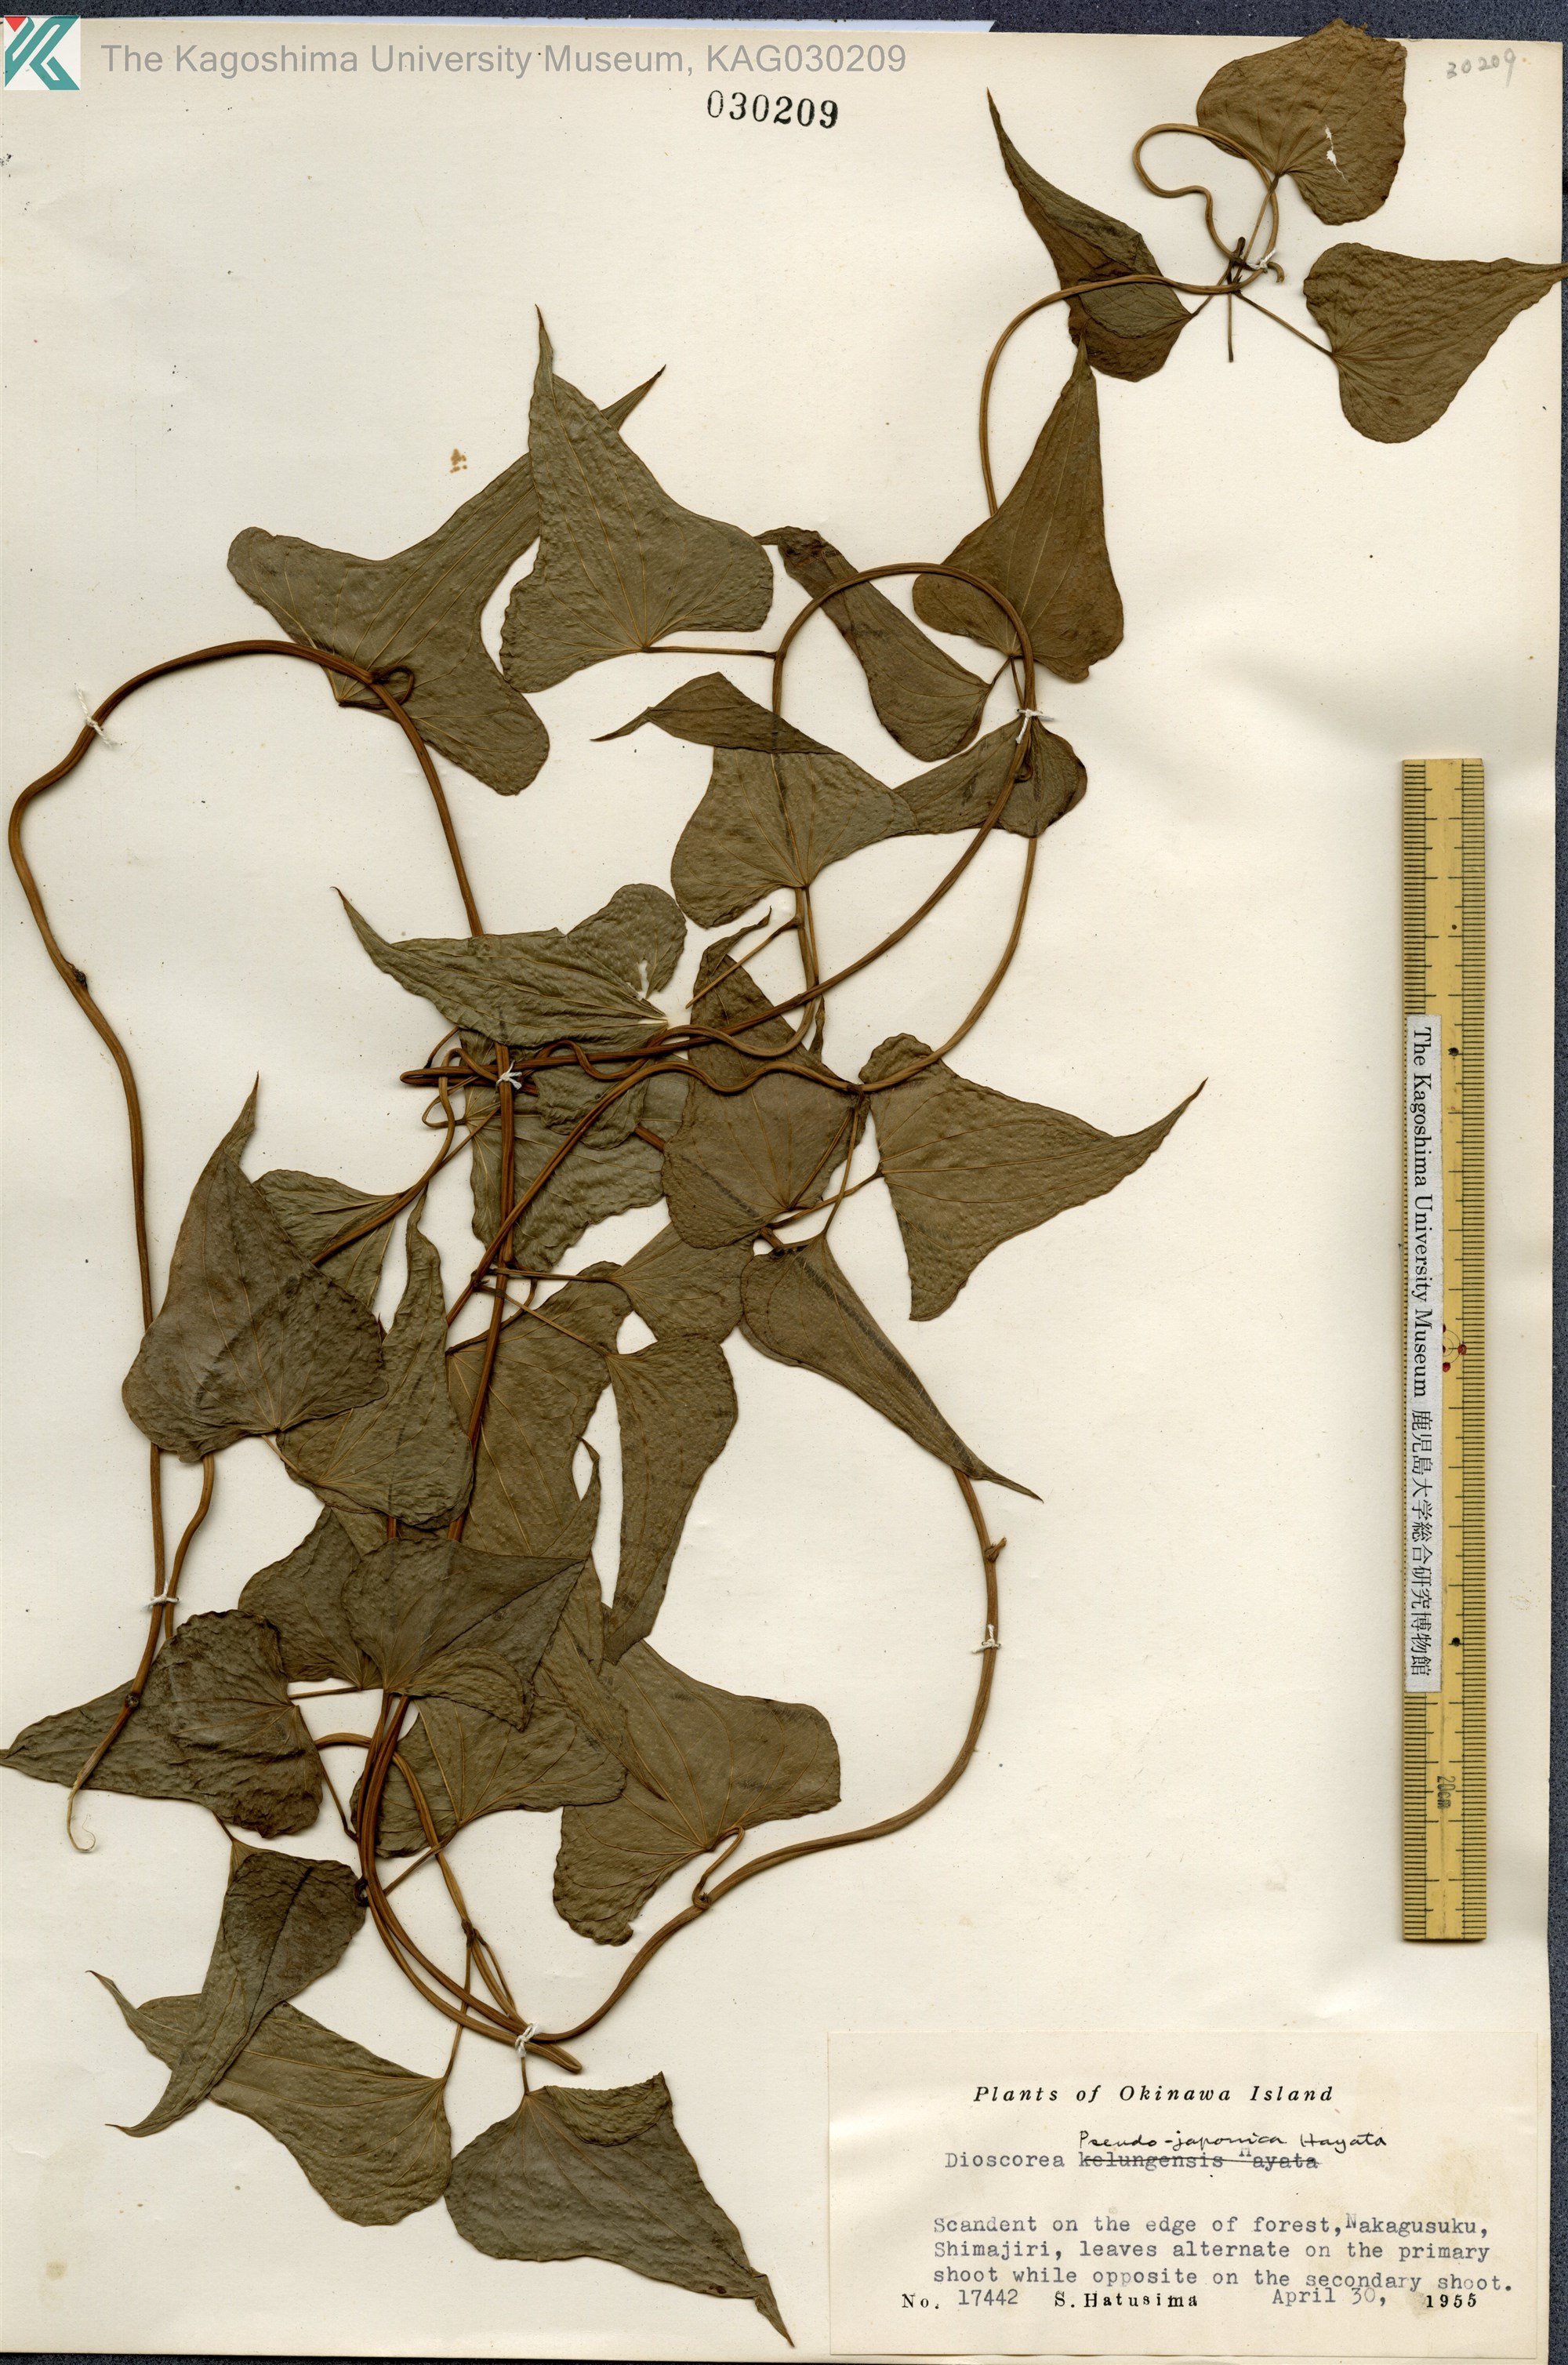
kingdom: Plantae
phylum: Tracheophyta
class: Liliopsida
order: Dioscoreales
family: Dioscoreaceae
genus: Dioscorea
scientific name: Dioscorea japonica
